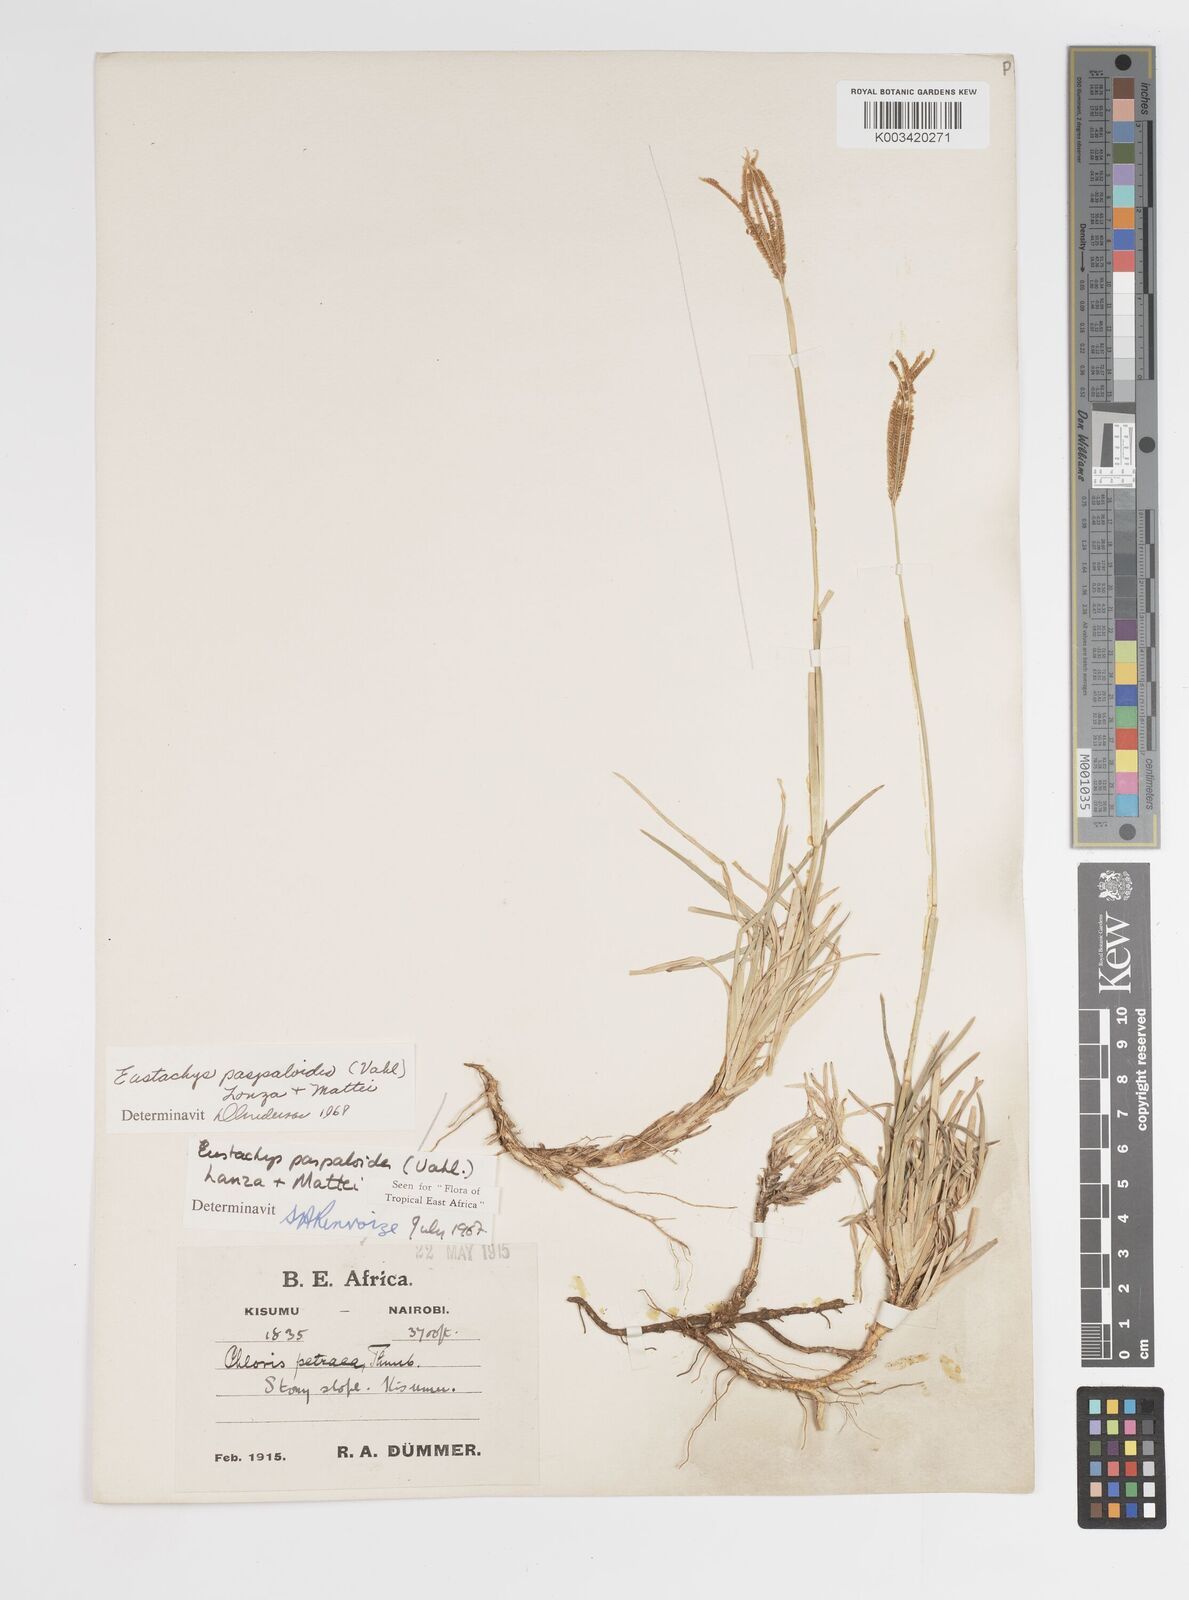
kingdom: Plantae
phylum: Tracheophyta
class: Liliopsida
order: Poales
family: Poaceae
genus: Eustachys
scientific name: Eustachys paspaloides
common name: Caribbean fingergrass
